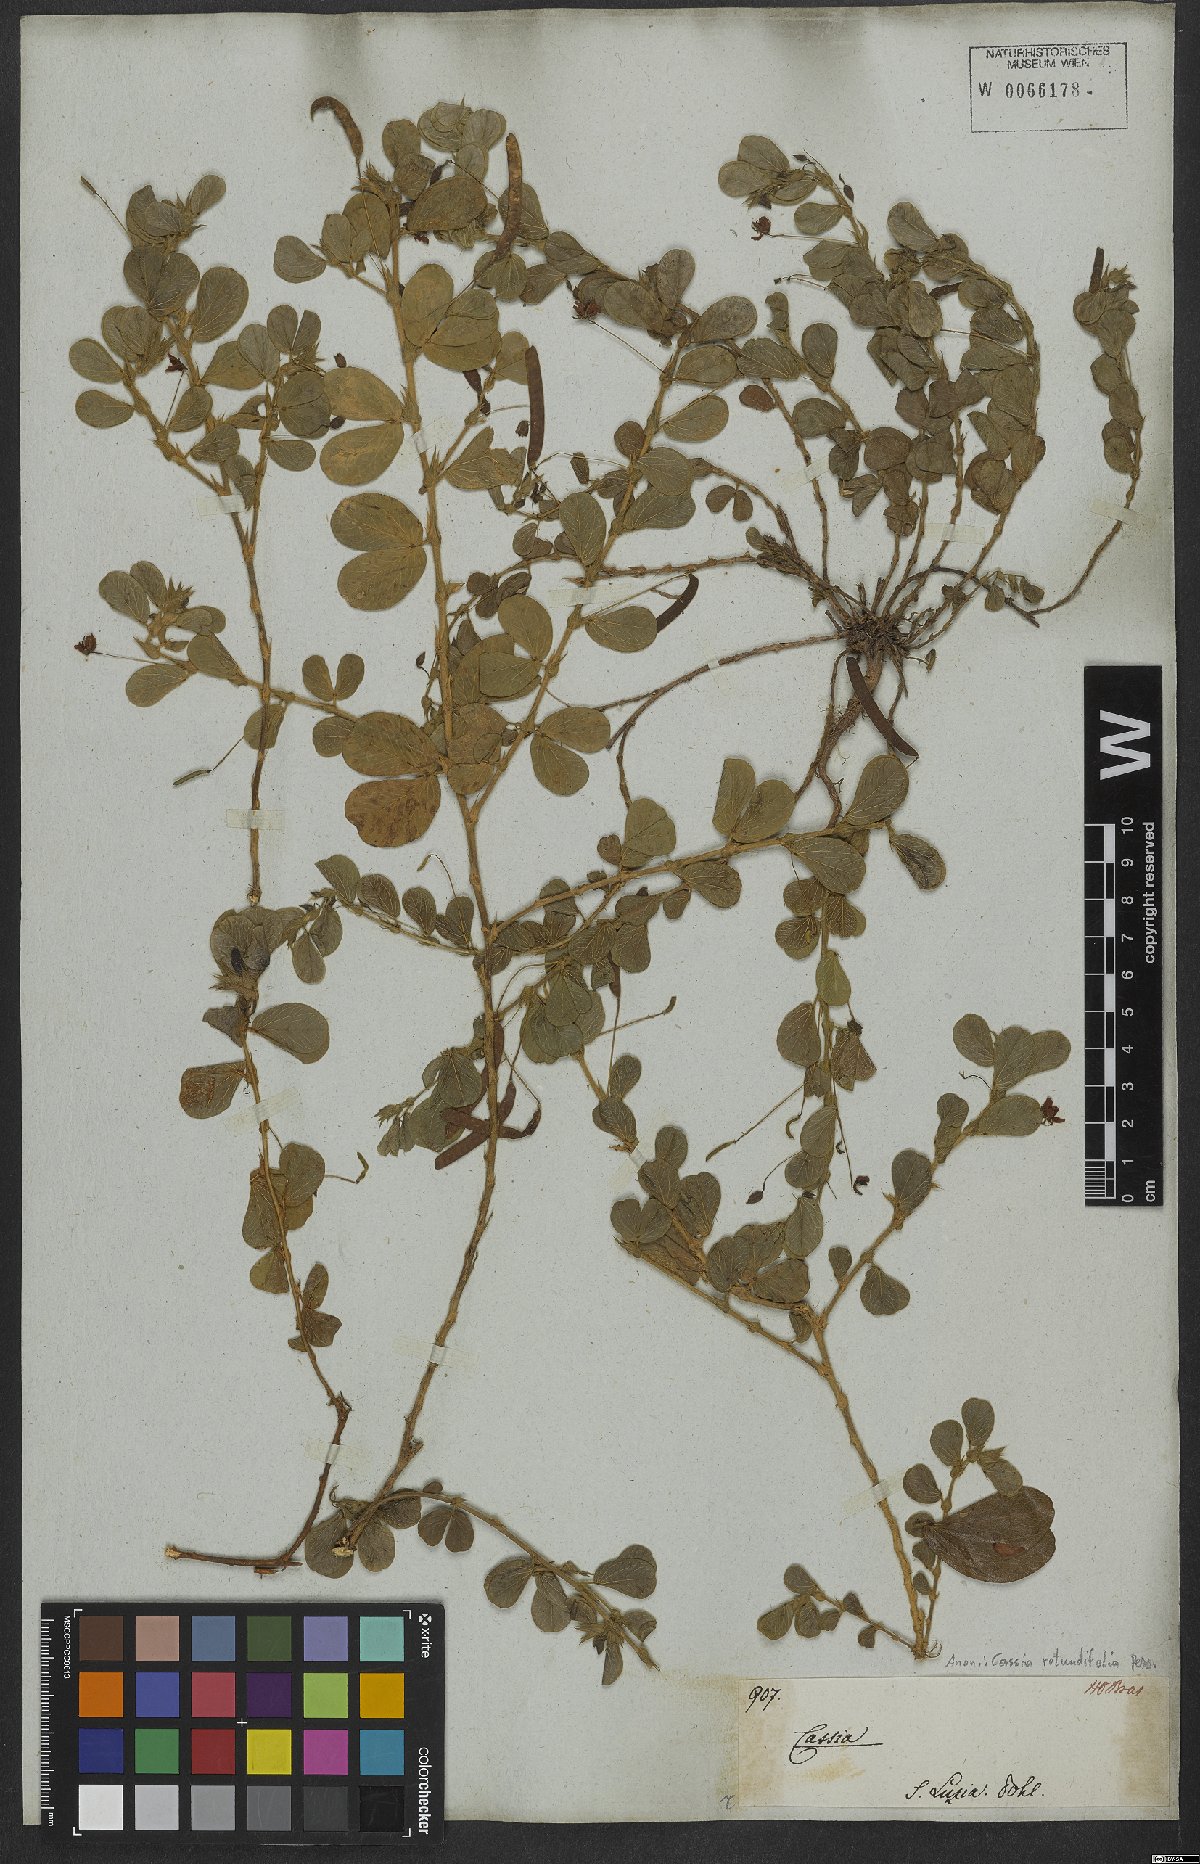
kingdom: Plantae
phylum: Tracheophyta
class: Magnoliopsida
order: Fabales
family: Fabaceae
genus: Chamaecrista
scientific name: Chamaecrista rotundifolia
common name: Round-leaf cassia
